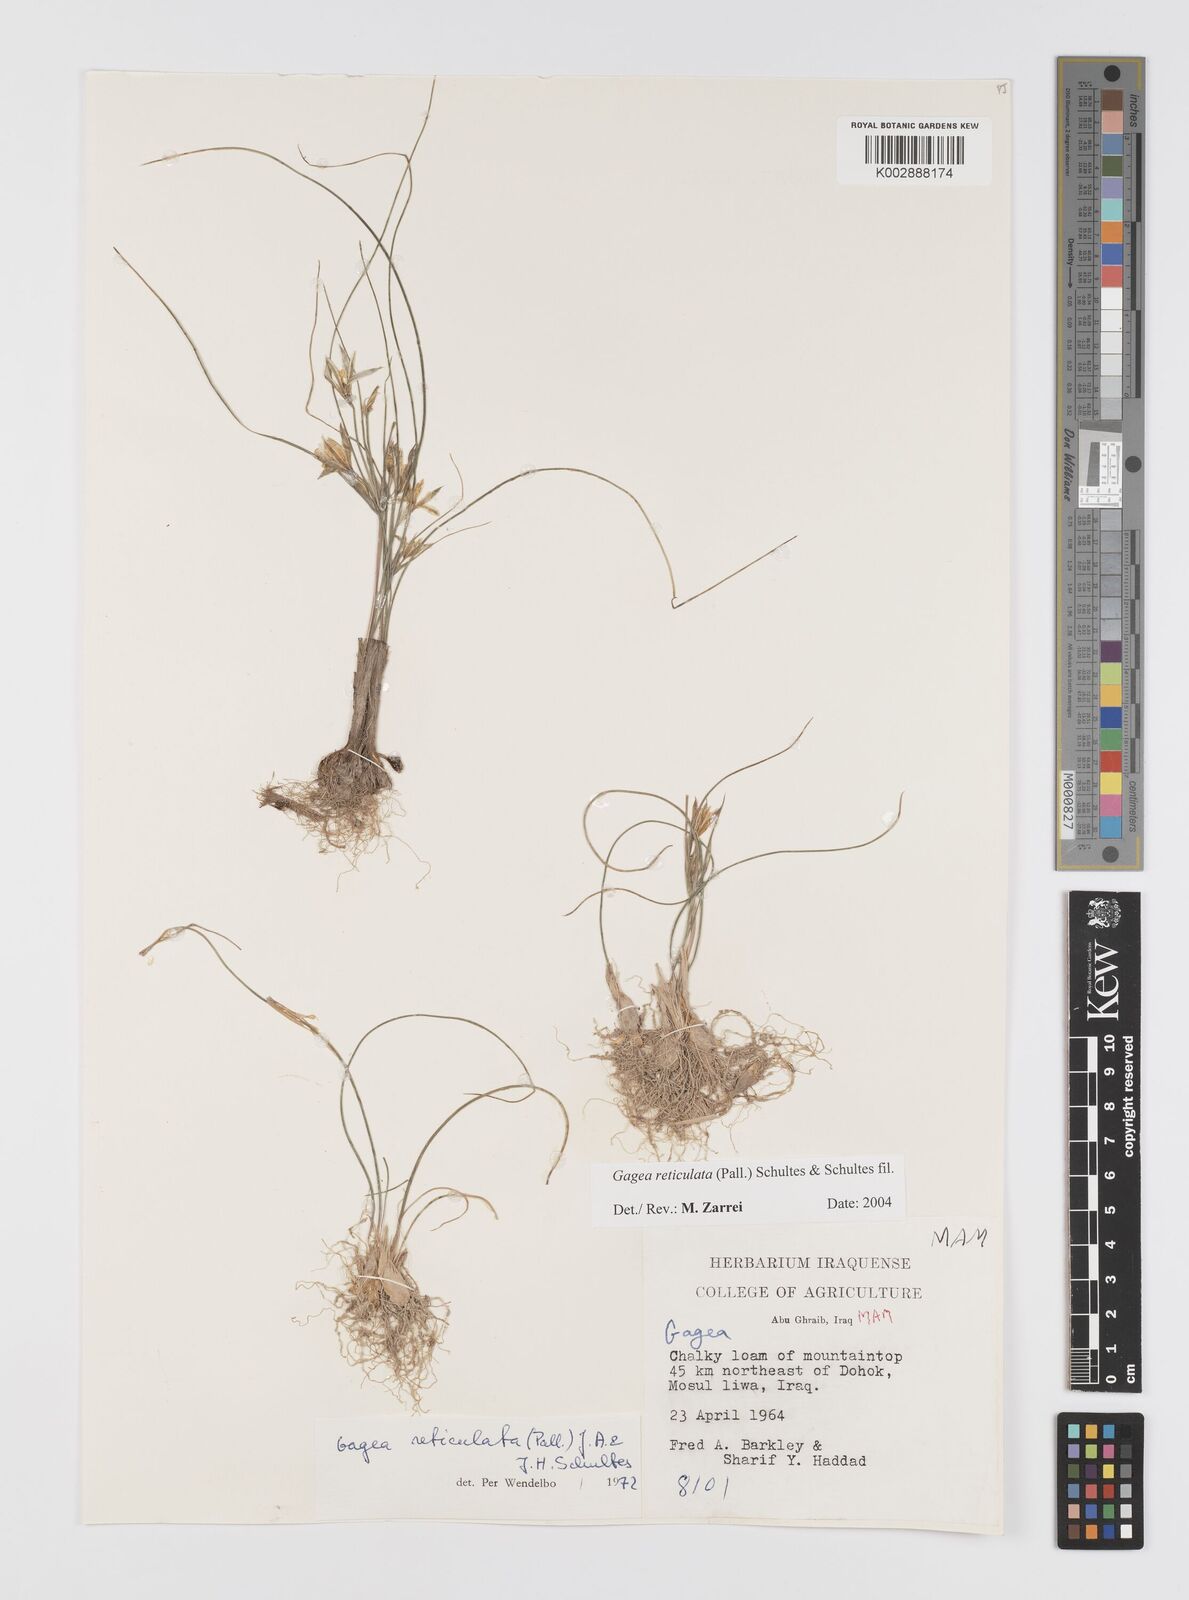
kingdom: Plantae
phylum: Tracheophyta
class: Liliopsida
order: Liliales
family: Liliaceae
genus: Gagea
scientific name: Gagea reticulata
